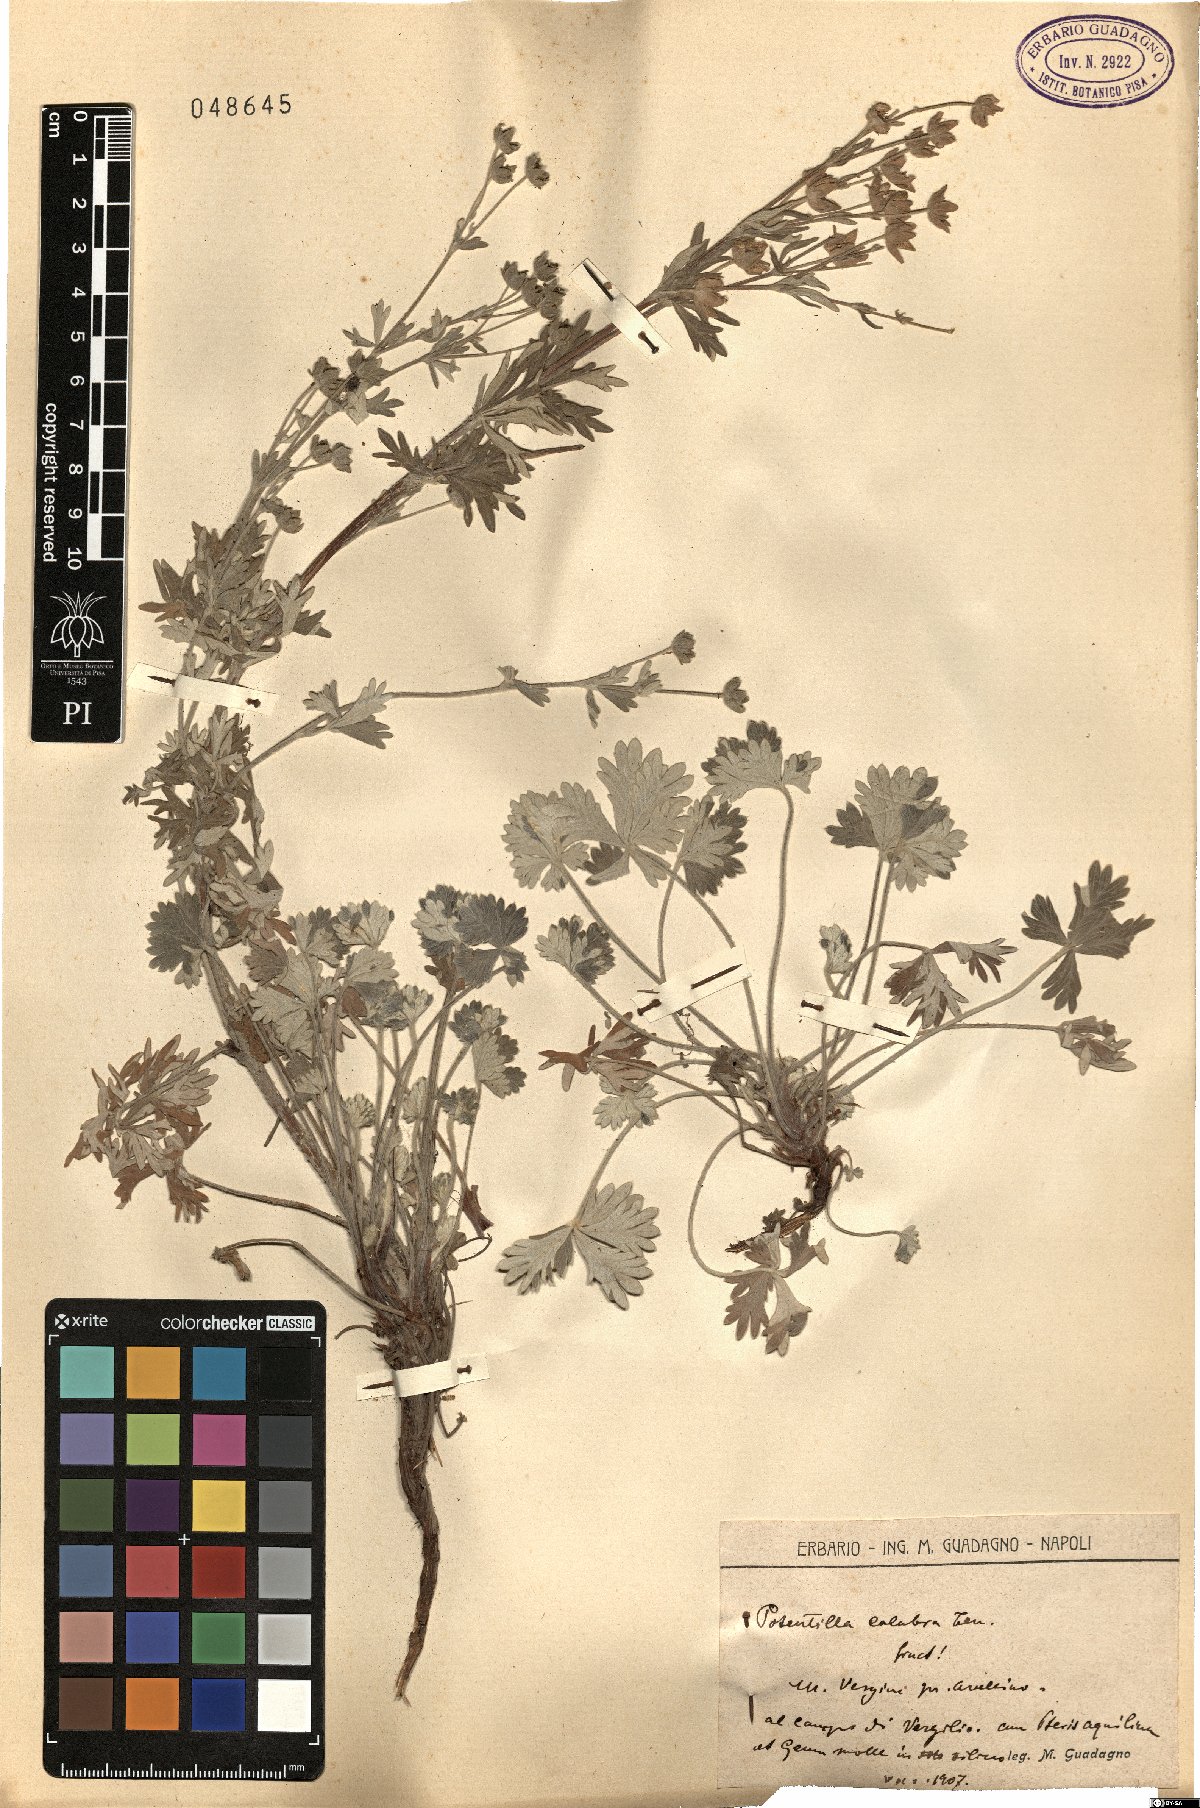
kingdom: Plantae
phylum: Tracheophyta
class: Magnoliopsida
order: Rosales
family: Rosaceae
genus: Potentilla
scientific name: Potentilla calabra
